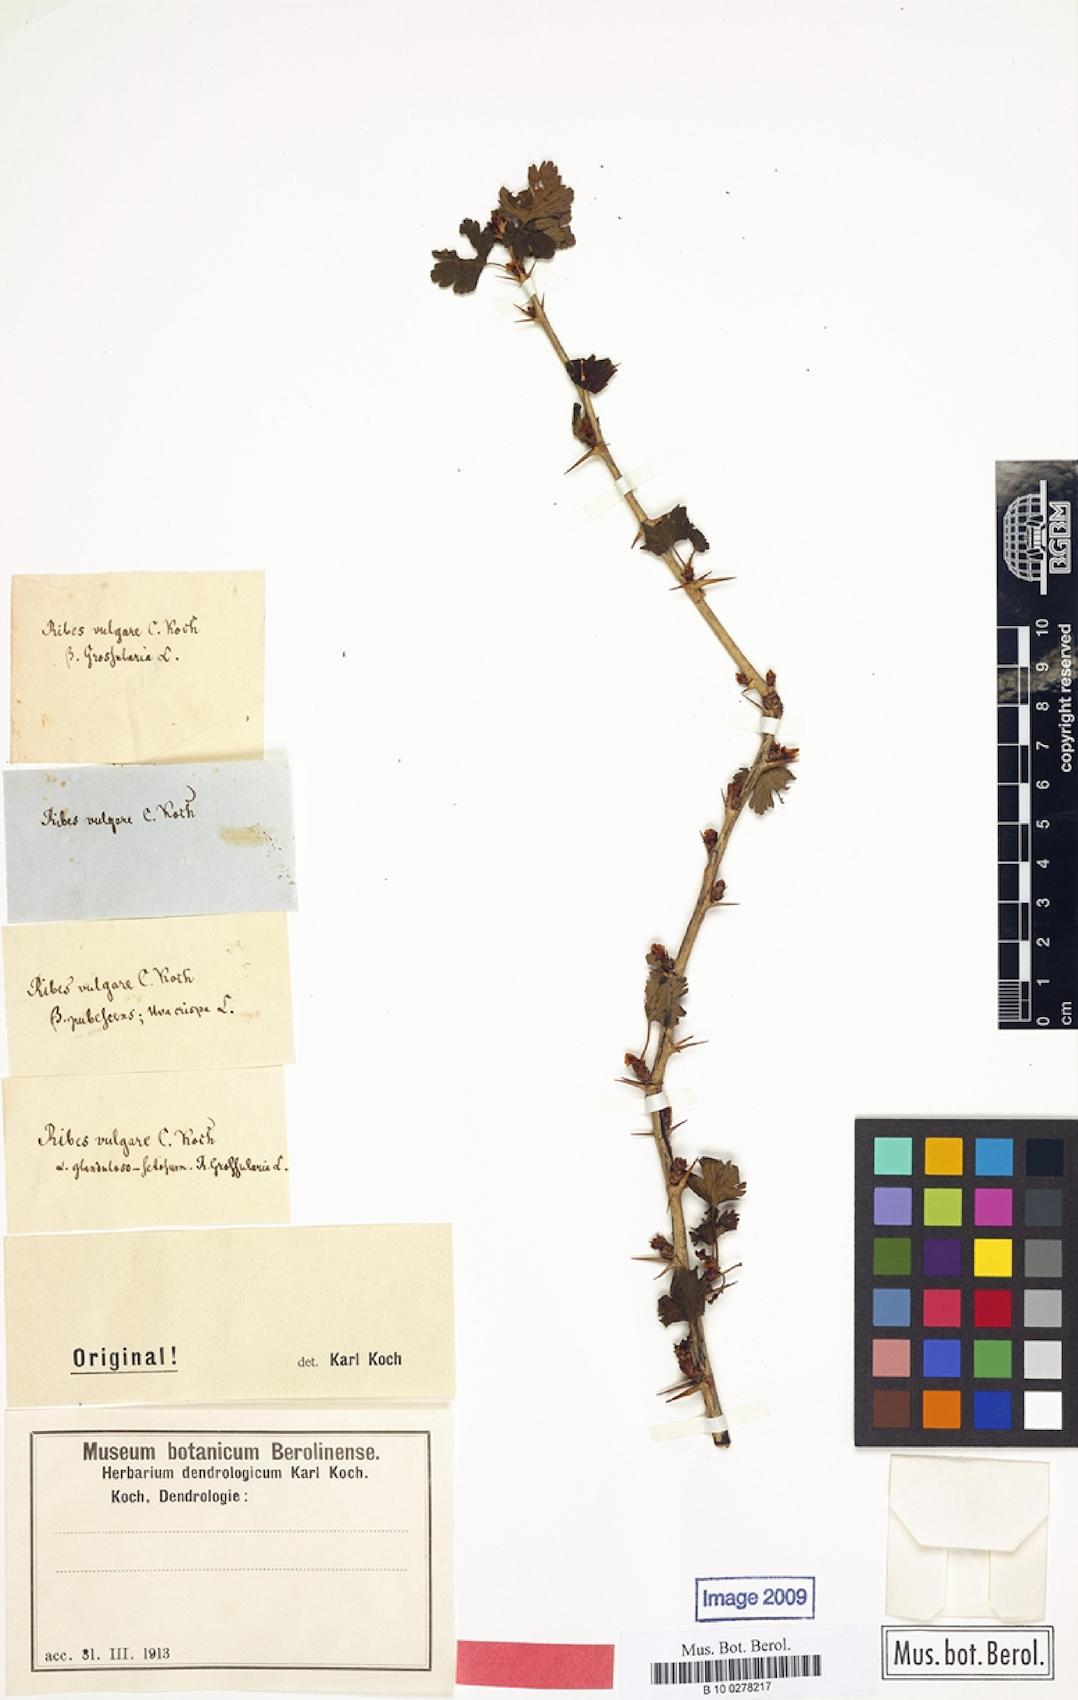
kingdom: Plantae
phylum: Tracheophyta
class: Magnoliopsida
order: Saxifragales
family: Grossulariaceae
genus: Ribes
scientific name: Ribes rubrum
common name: Red currant
